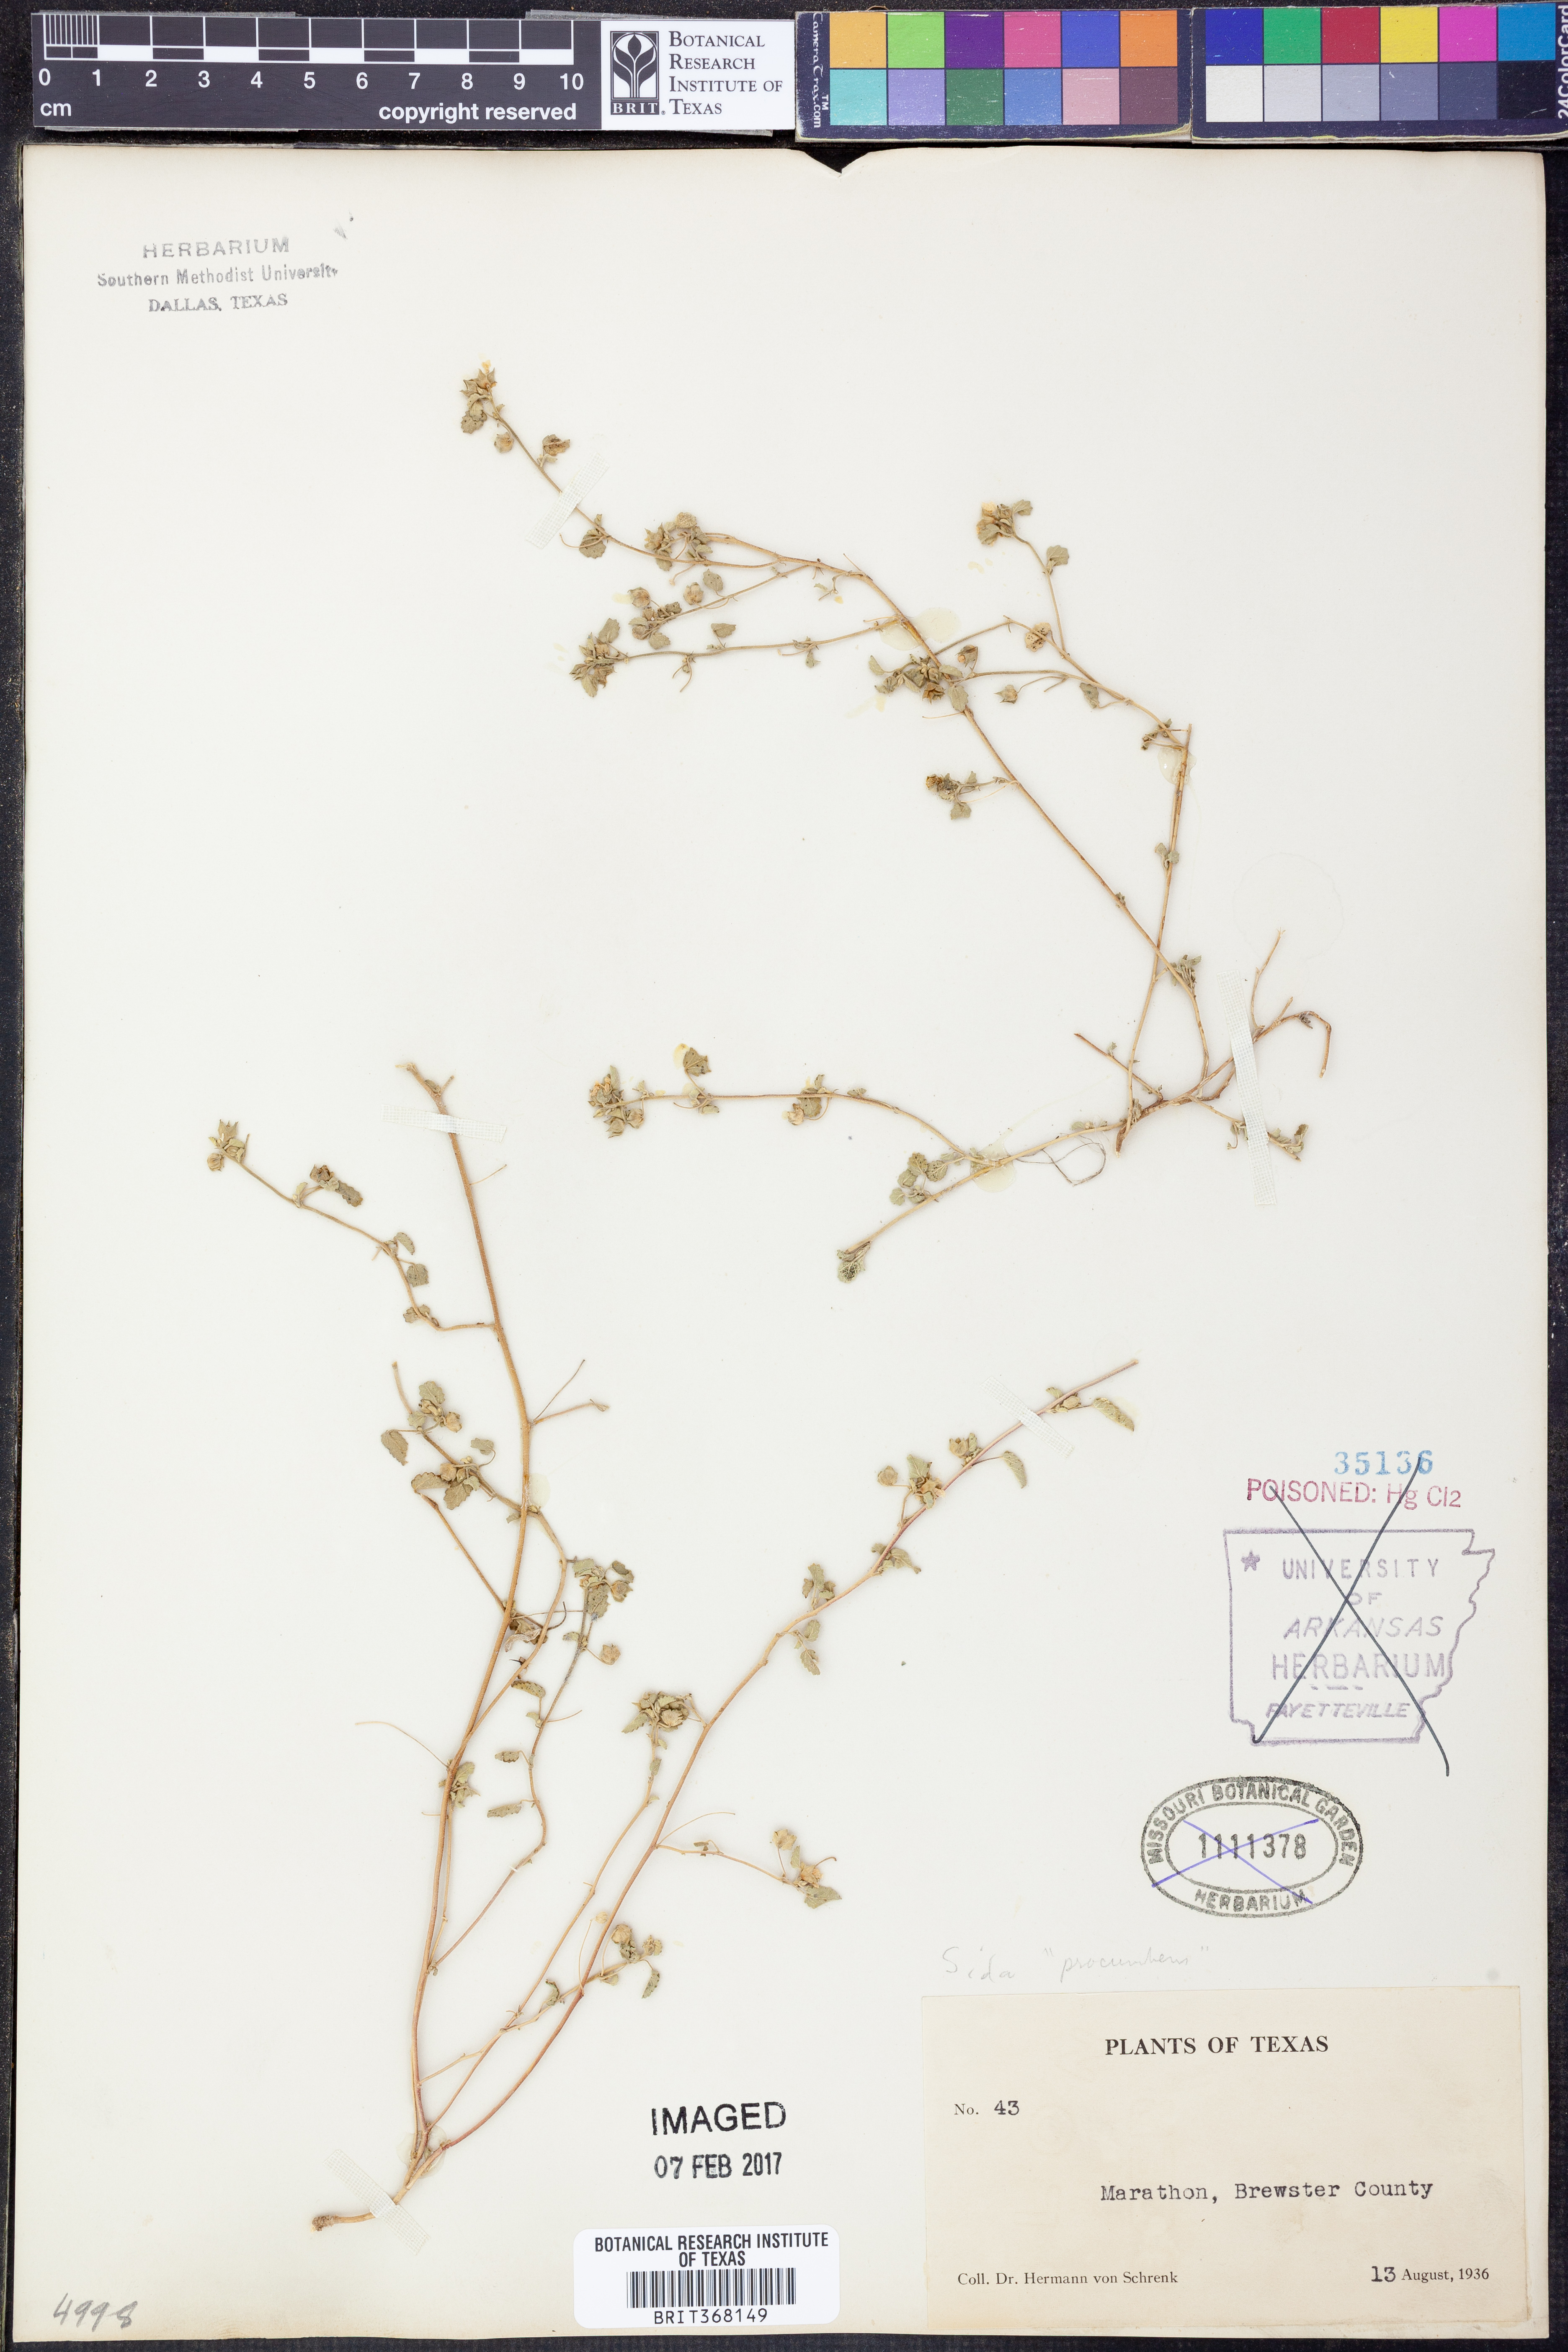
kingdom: Plantae
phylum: Tracheophyta
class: Magnoliopsida
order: Malvales
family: Malvaceae
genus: Sida
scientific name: Sida abutilifolia
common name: Spreading fanpetals
